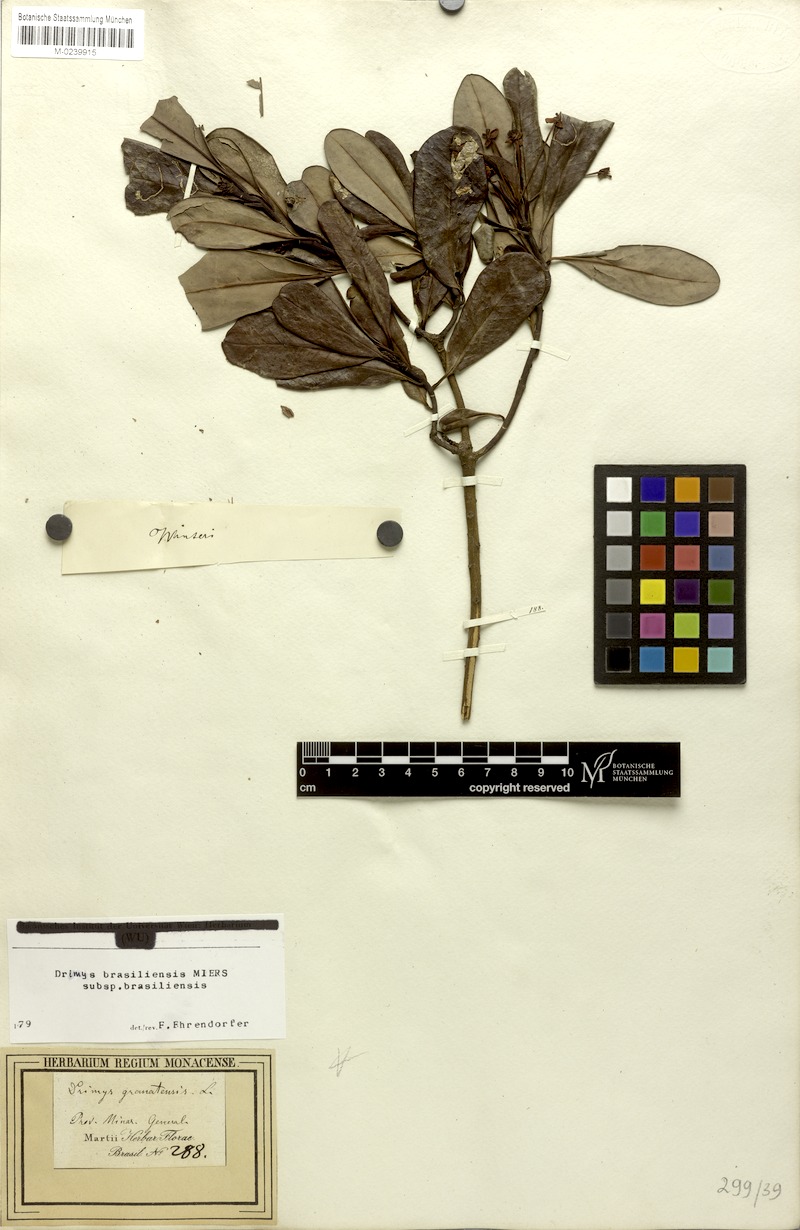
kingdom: Plantae
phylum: Tracheophyta
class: Magnoliopsida
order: Canellales
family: Winteraceae
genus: Drimys
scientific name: Drimys brasiliensis
